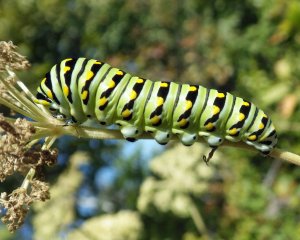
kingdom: Animalia
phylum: Arthropoda
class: Insecta
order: Lepidoptera
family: Papilionidae
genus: Papilio
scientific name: Papilio polyxenes
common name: Black Swallowtail
